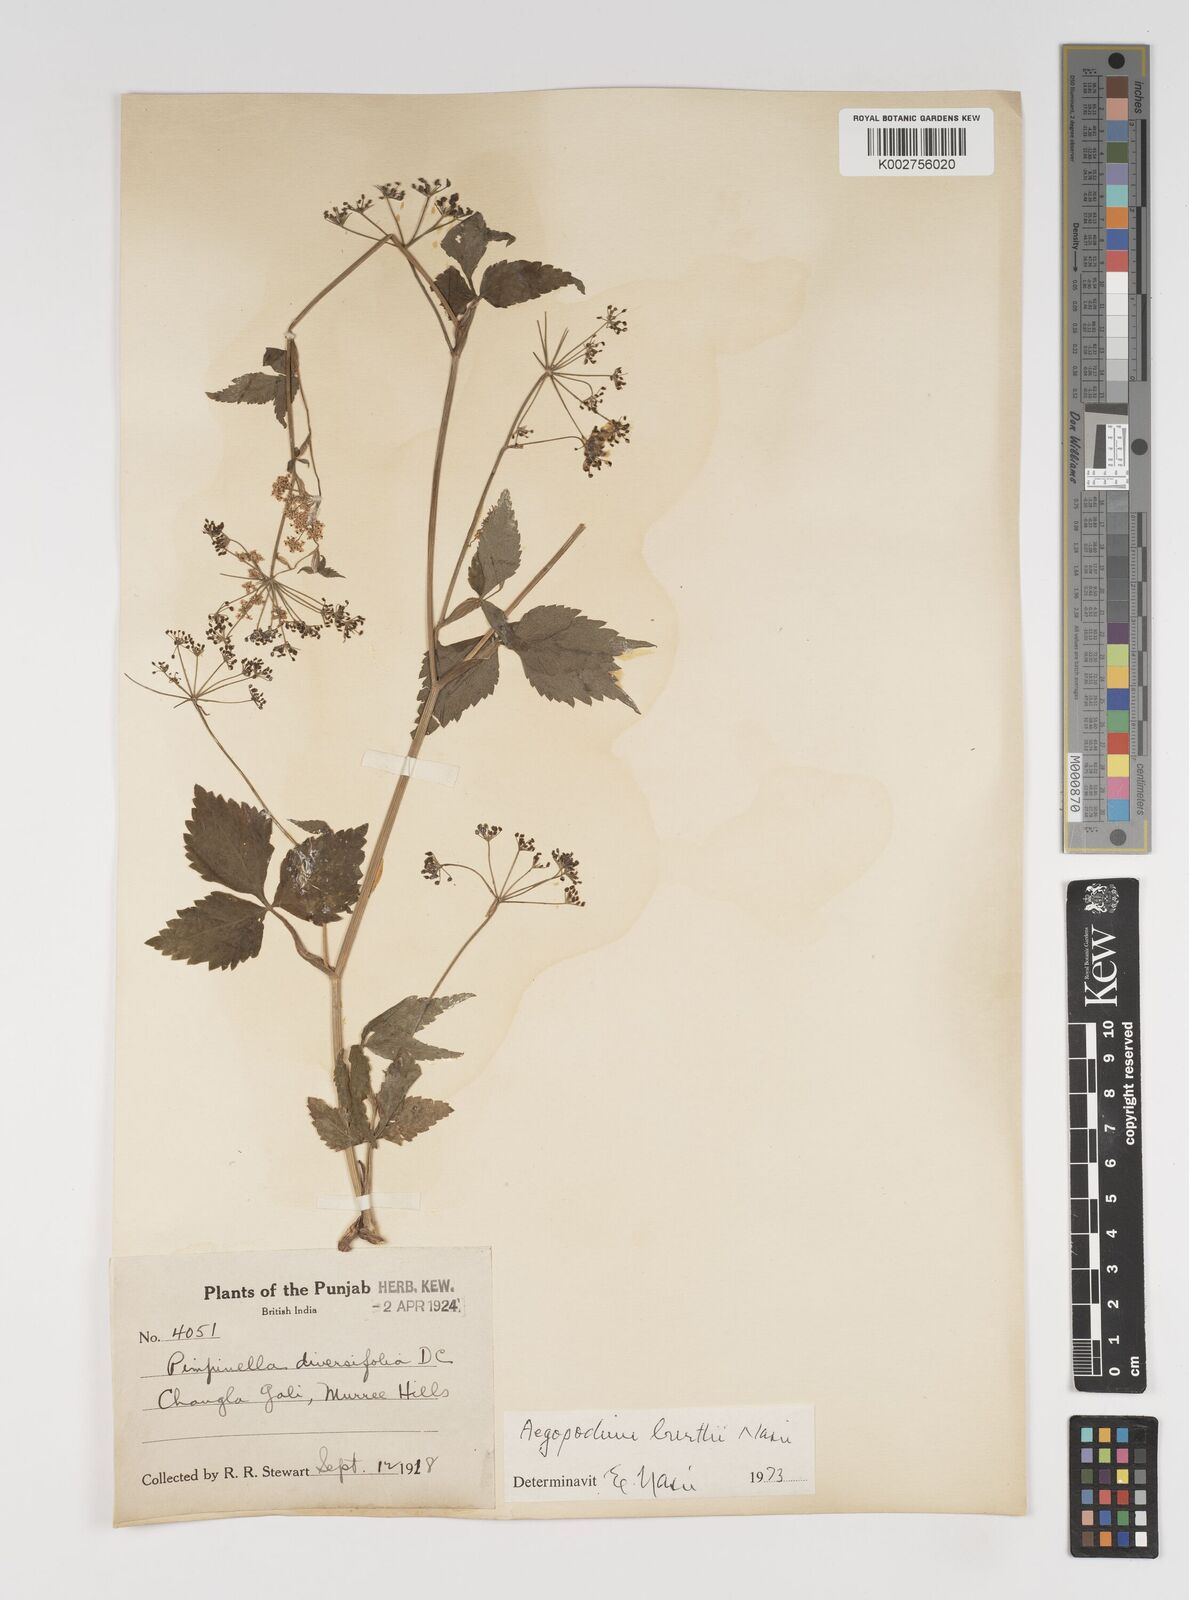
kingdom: Plantae
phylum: Tracheophyta
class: Magnoliopsida
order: Apiales
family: Apiaceae
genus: Pimpinella
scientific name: Pimpinella diversifolia
